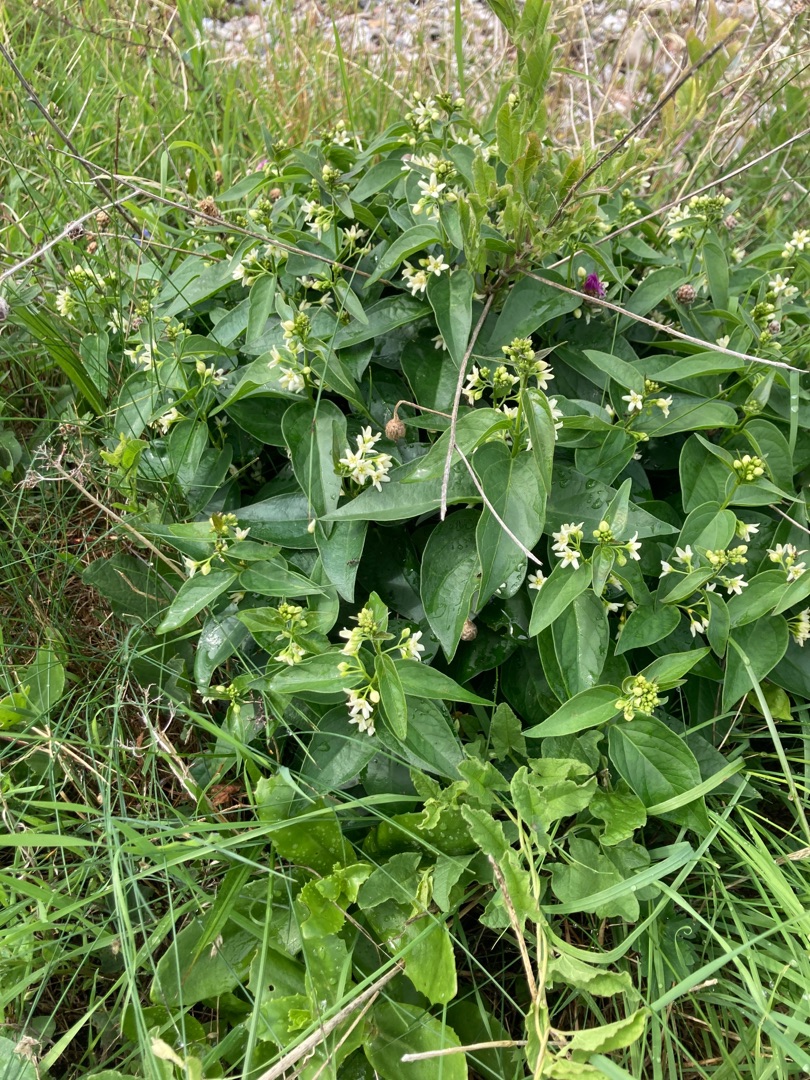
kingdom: Plantae
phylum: Tracheophyta
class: Magnoliopsida
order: Gentianales
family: Apocynaceae
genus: Vincetoxicum
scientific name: Vincetoxicum hirundinaria
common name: Svalerod
